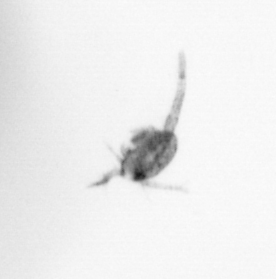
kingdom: Animalia
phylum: Arthropoda
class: Copepoda
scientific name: Copepoda
